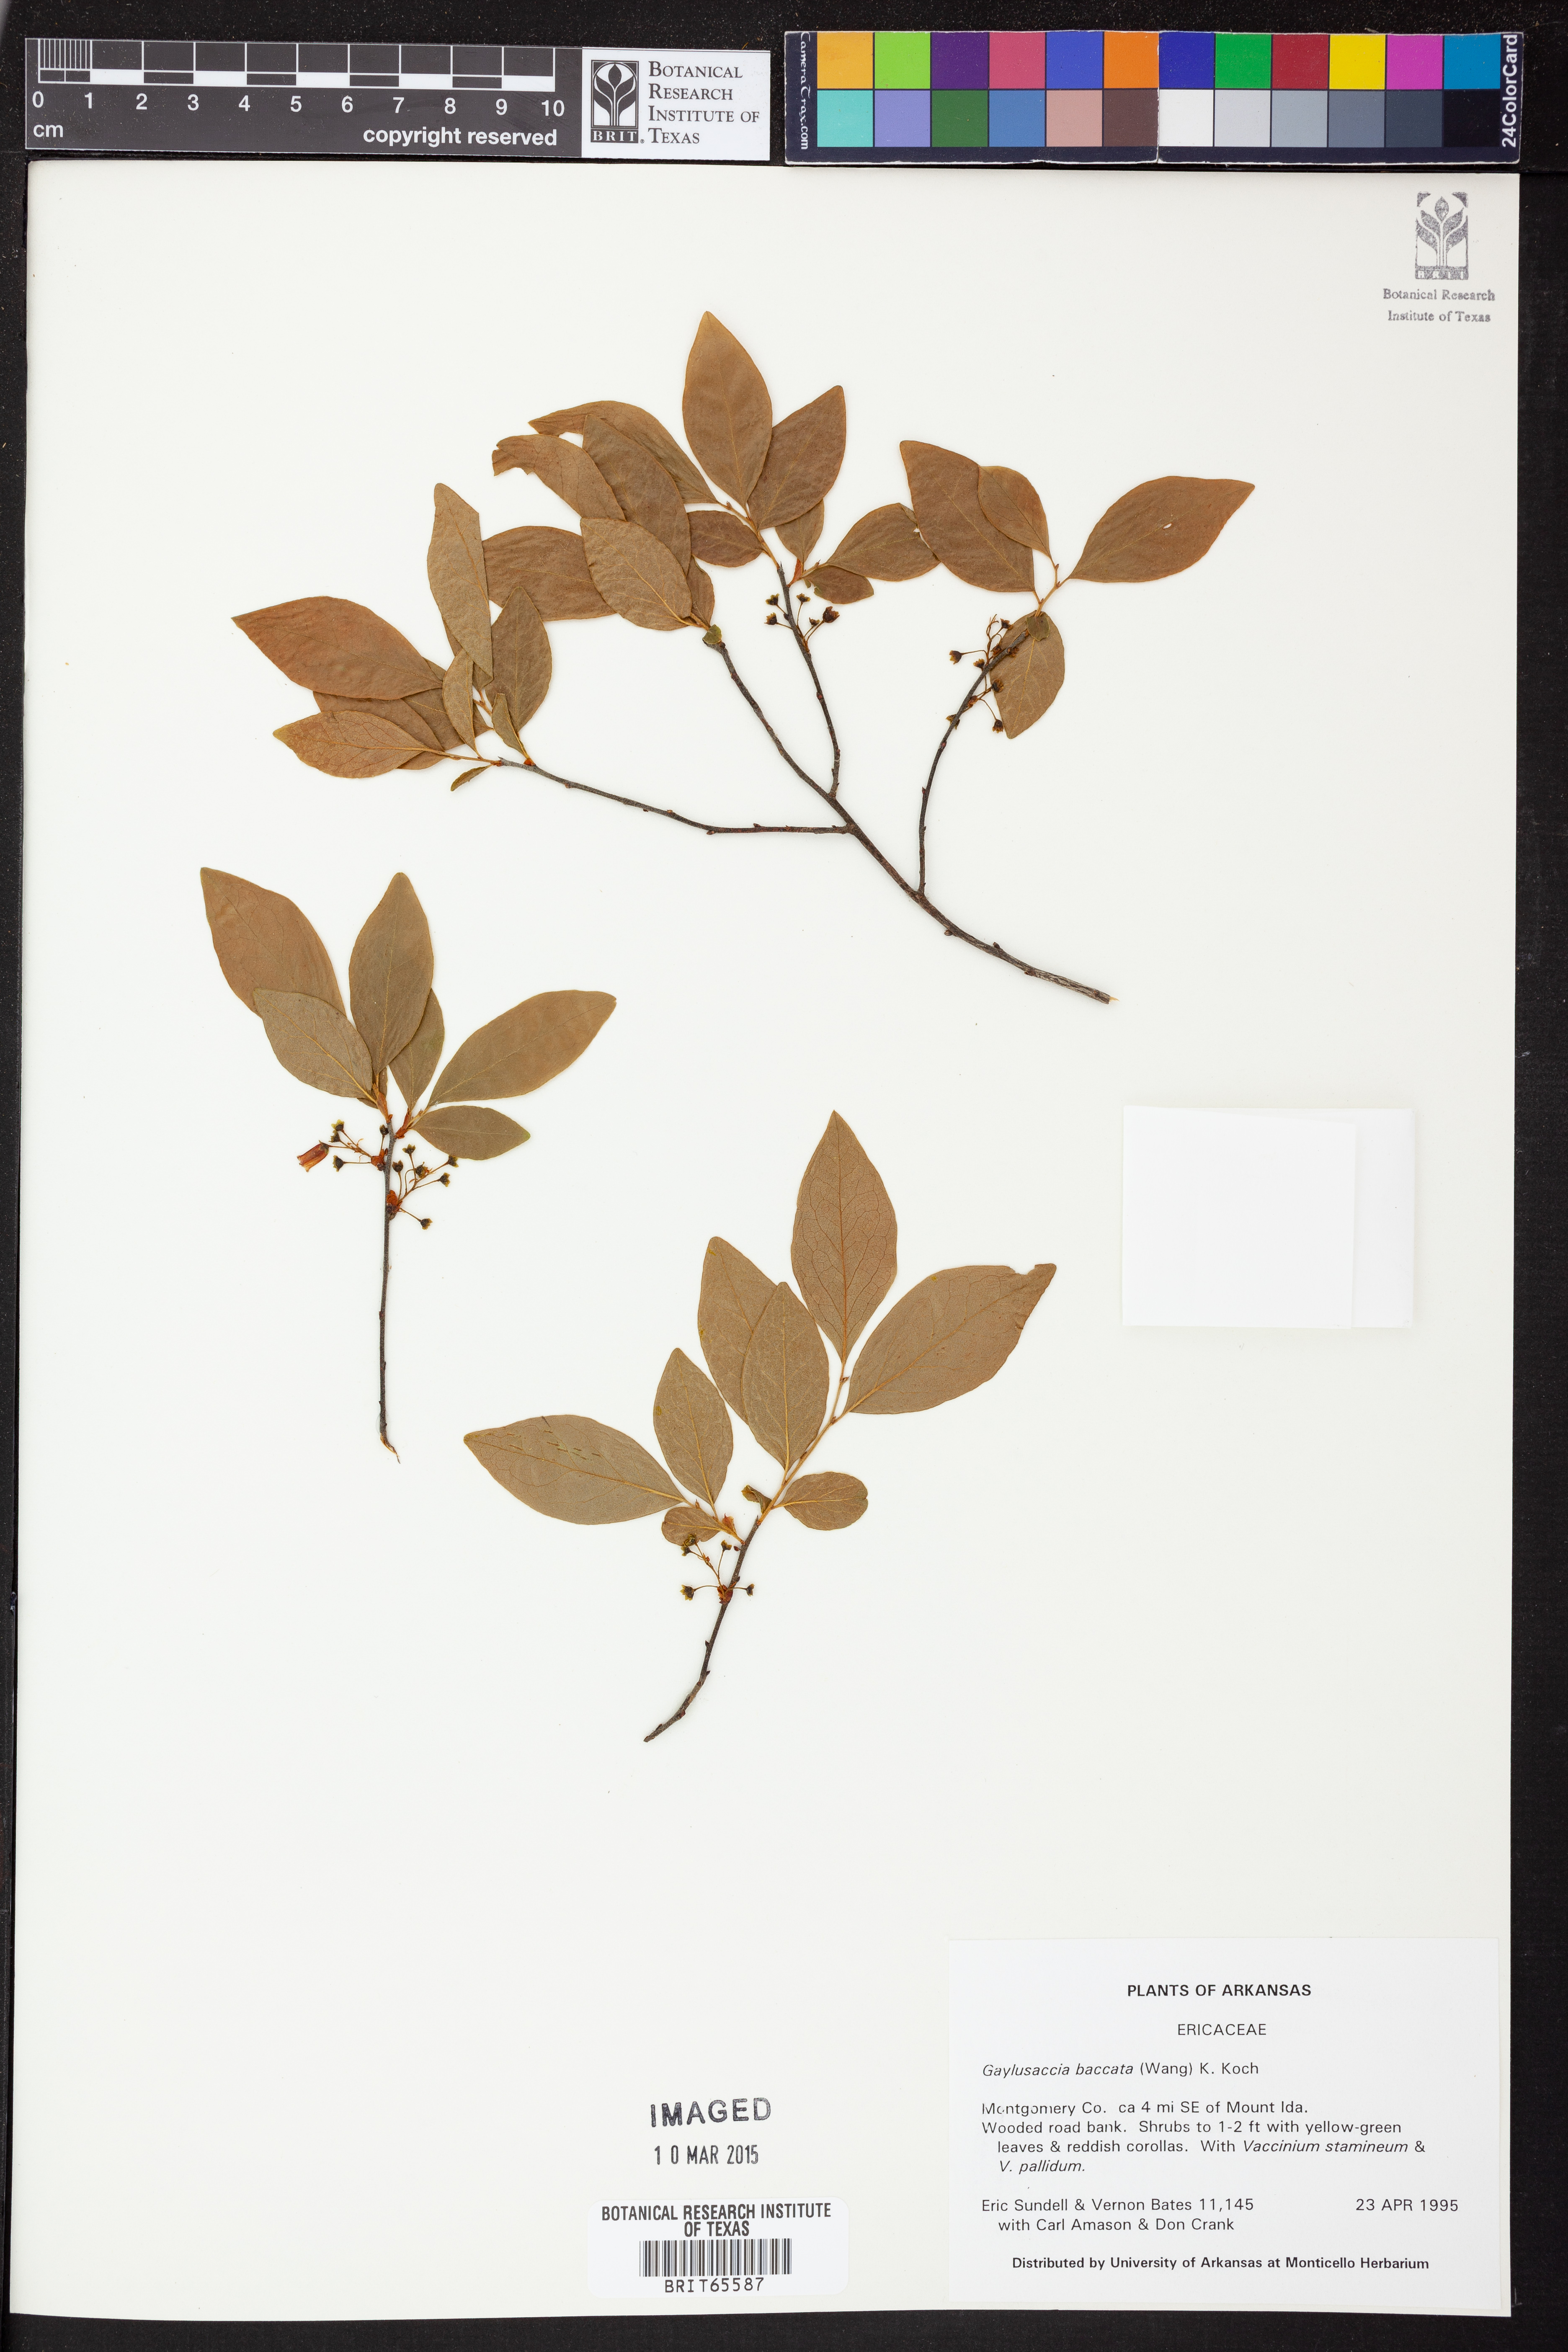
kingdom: Plantae
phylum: Tracheophyta
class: Magnoliopsida
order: Ericales
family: Ericaceae
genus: Gaylussacia
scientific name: Gaylussacia baccata
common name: Black huckleberry
